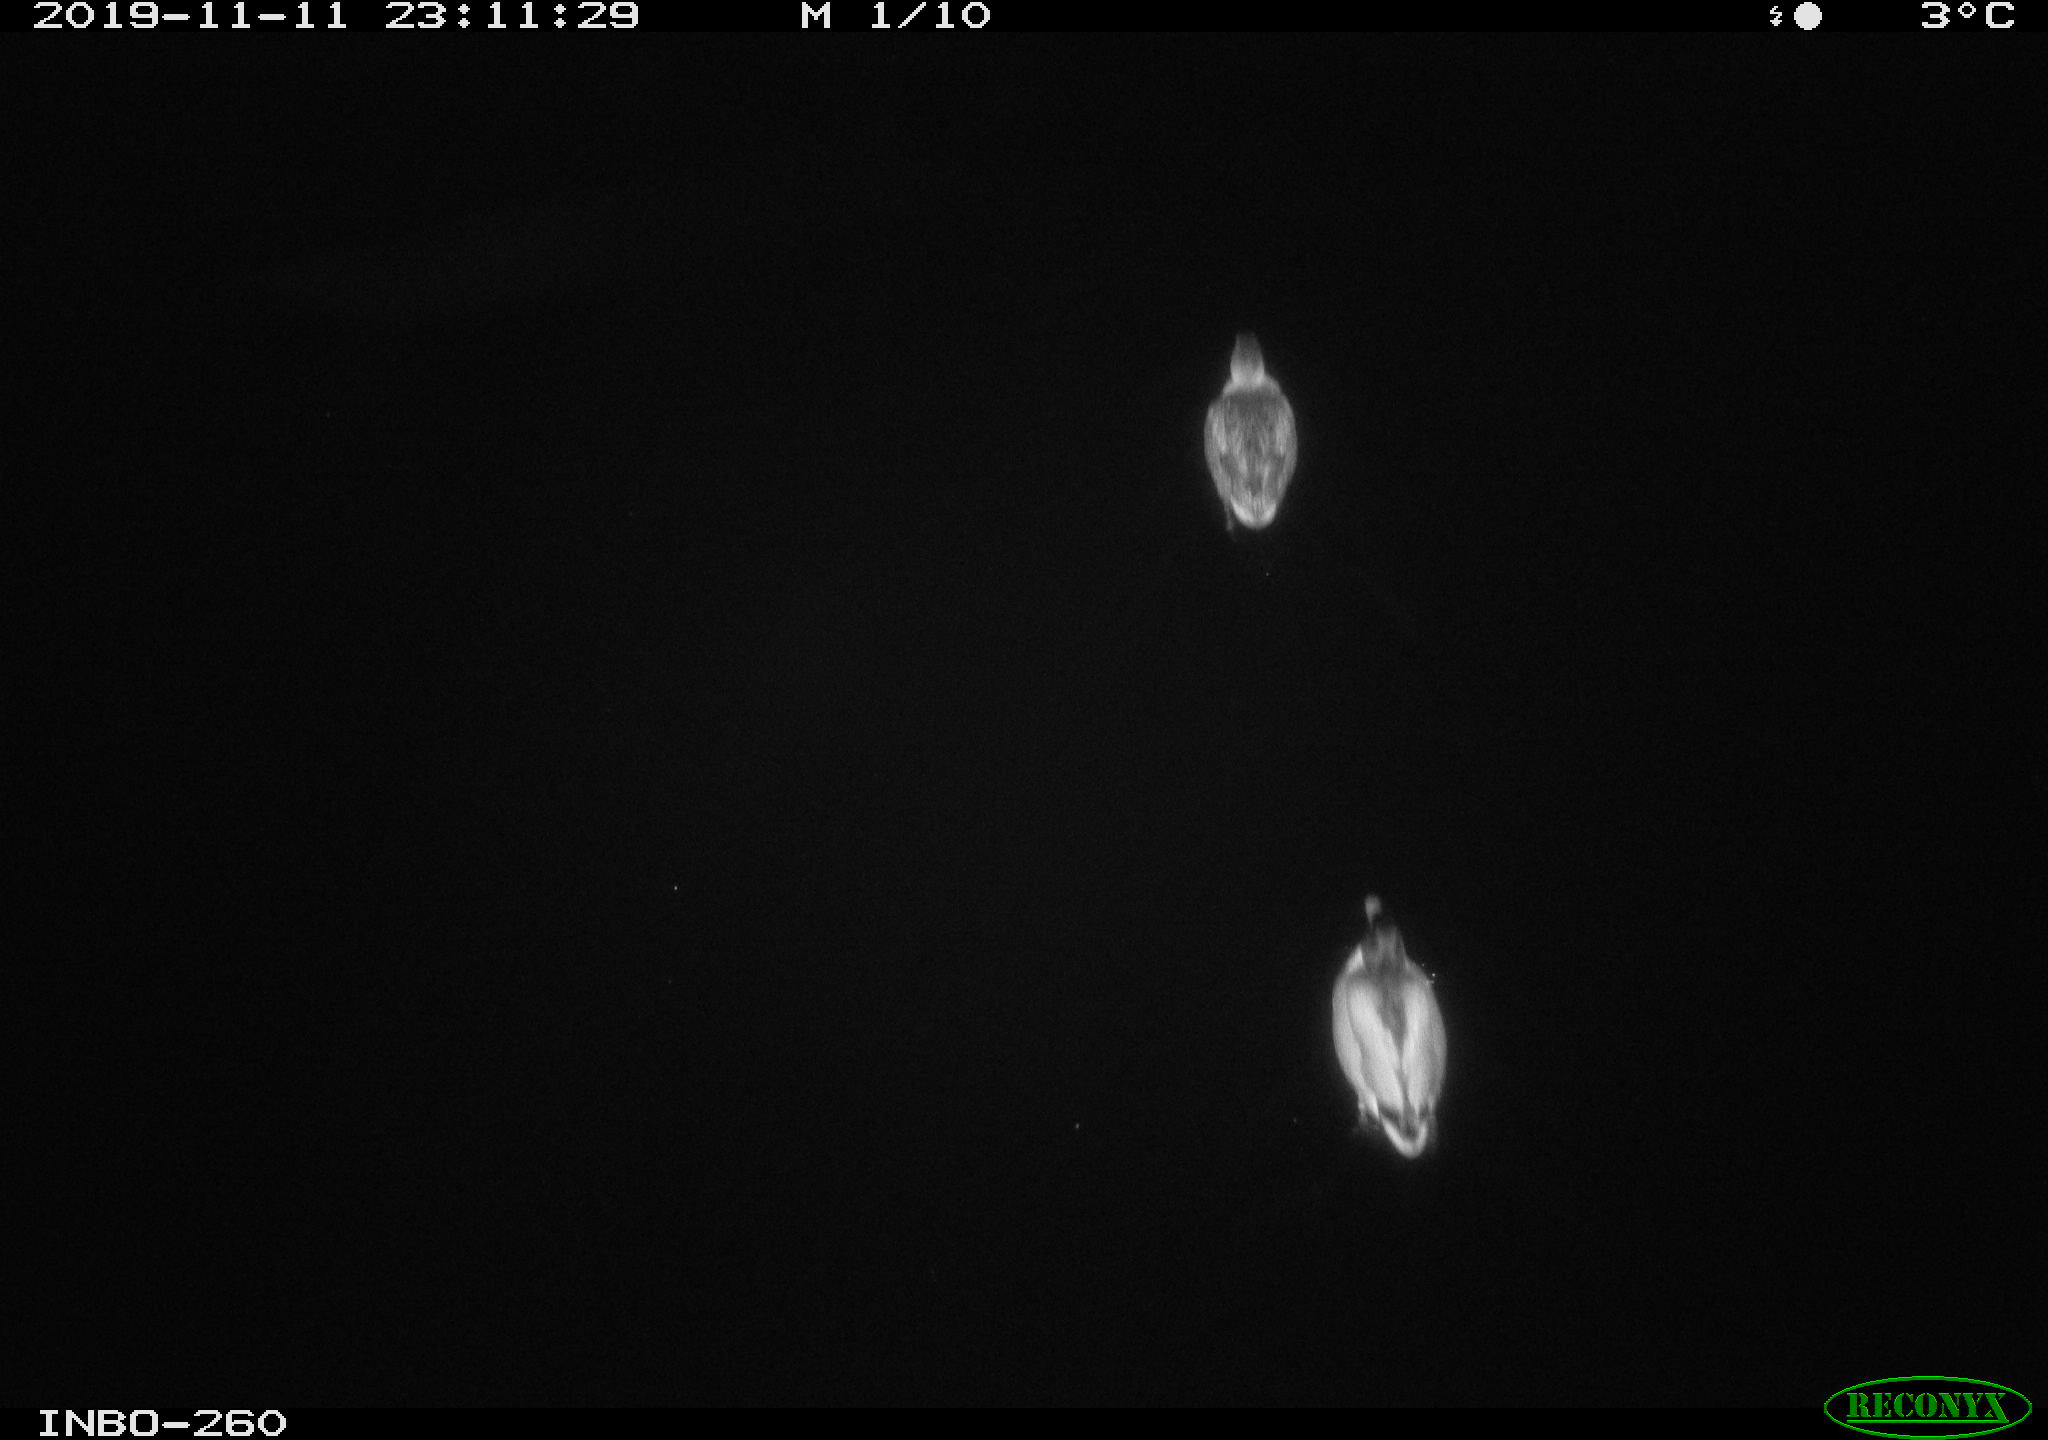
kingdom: Animalia
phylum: Chordata
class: Aves
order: Anseriformes
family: Anatidae
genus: Anas
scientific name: Anas platyrhynchos
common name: Mallard
